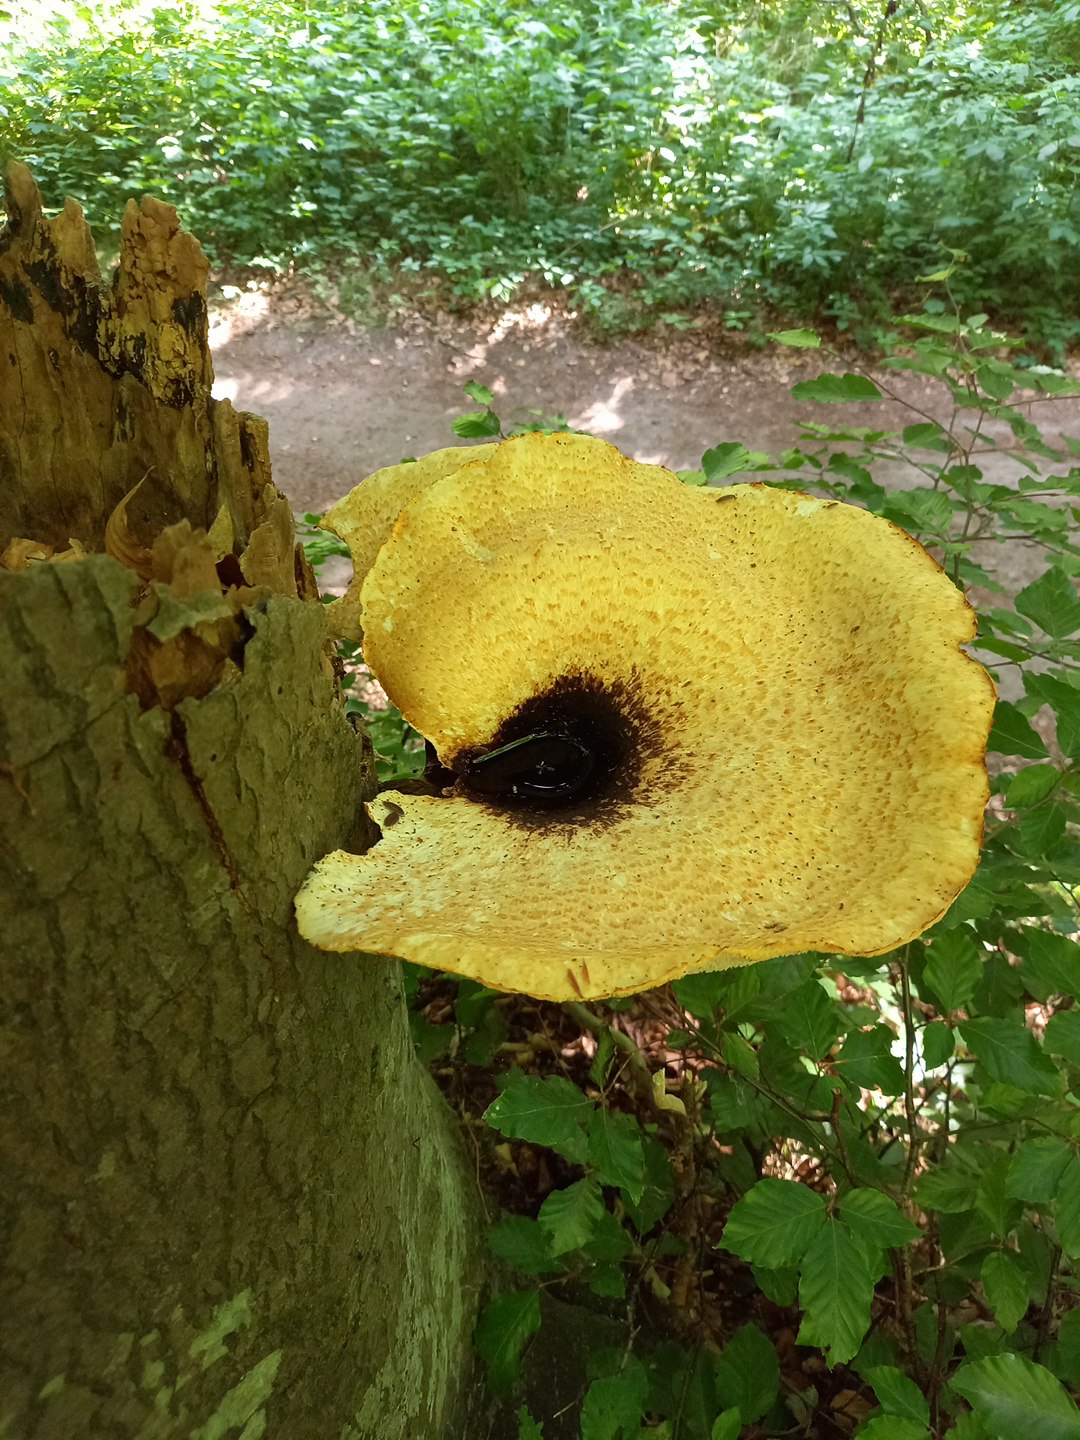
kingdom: Fungi
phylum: Basidiomycota
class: Agaricomycetes
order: Polyporales
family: Polyporaceae
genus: Cerioporus
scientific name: Cerioporus squamosus
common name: skællet stilkporesvamp
